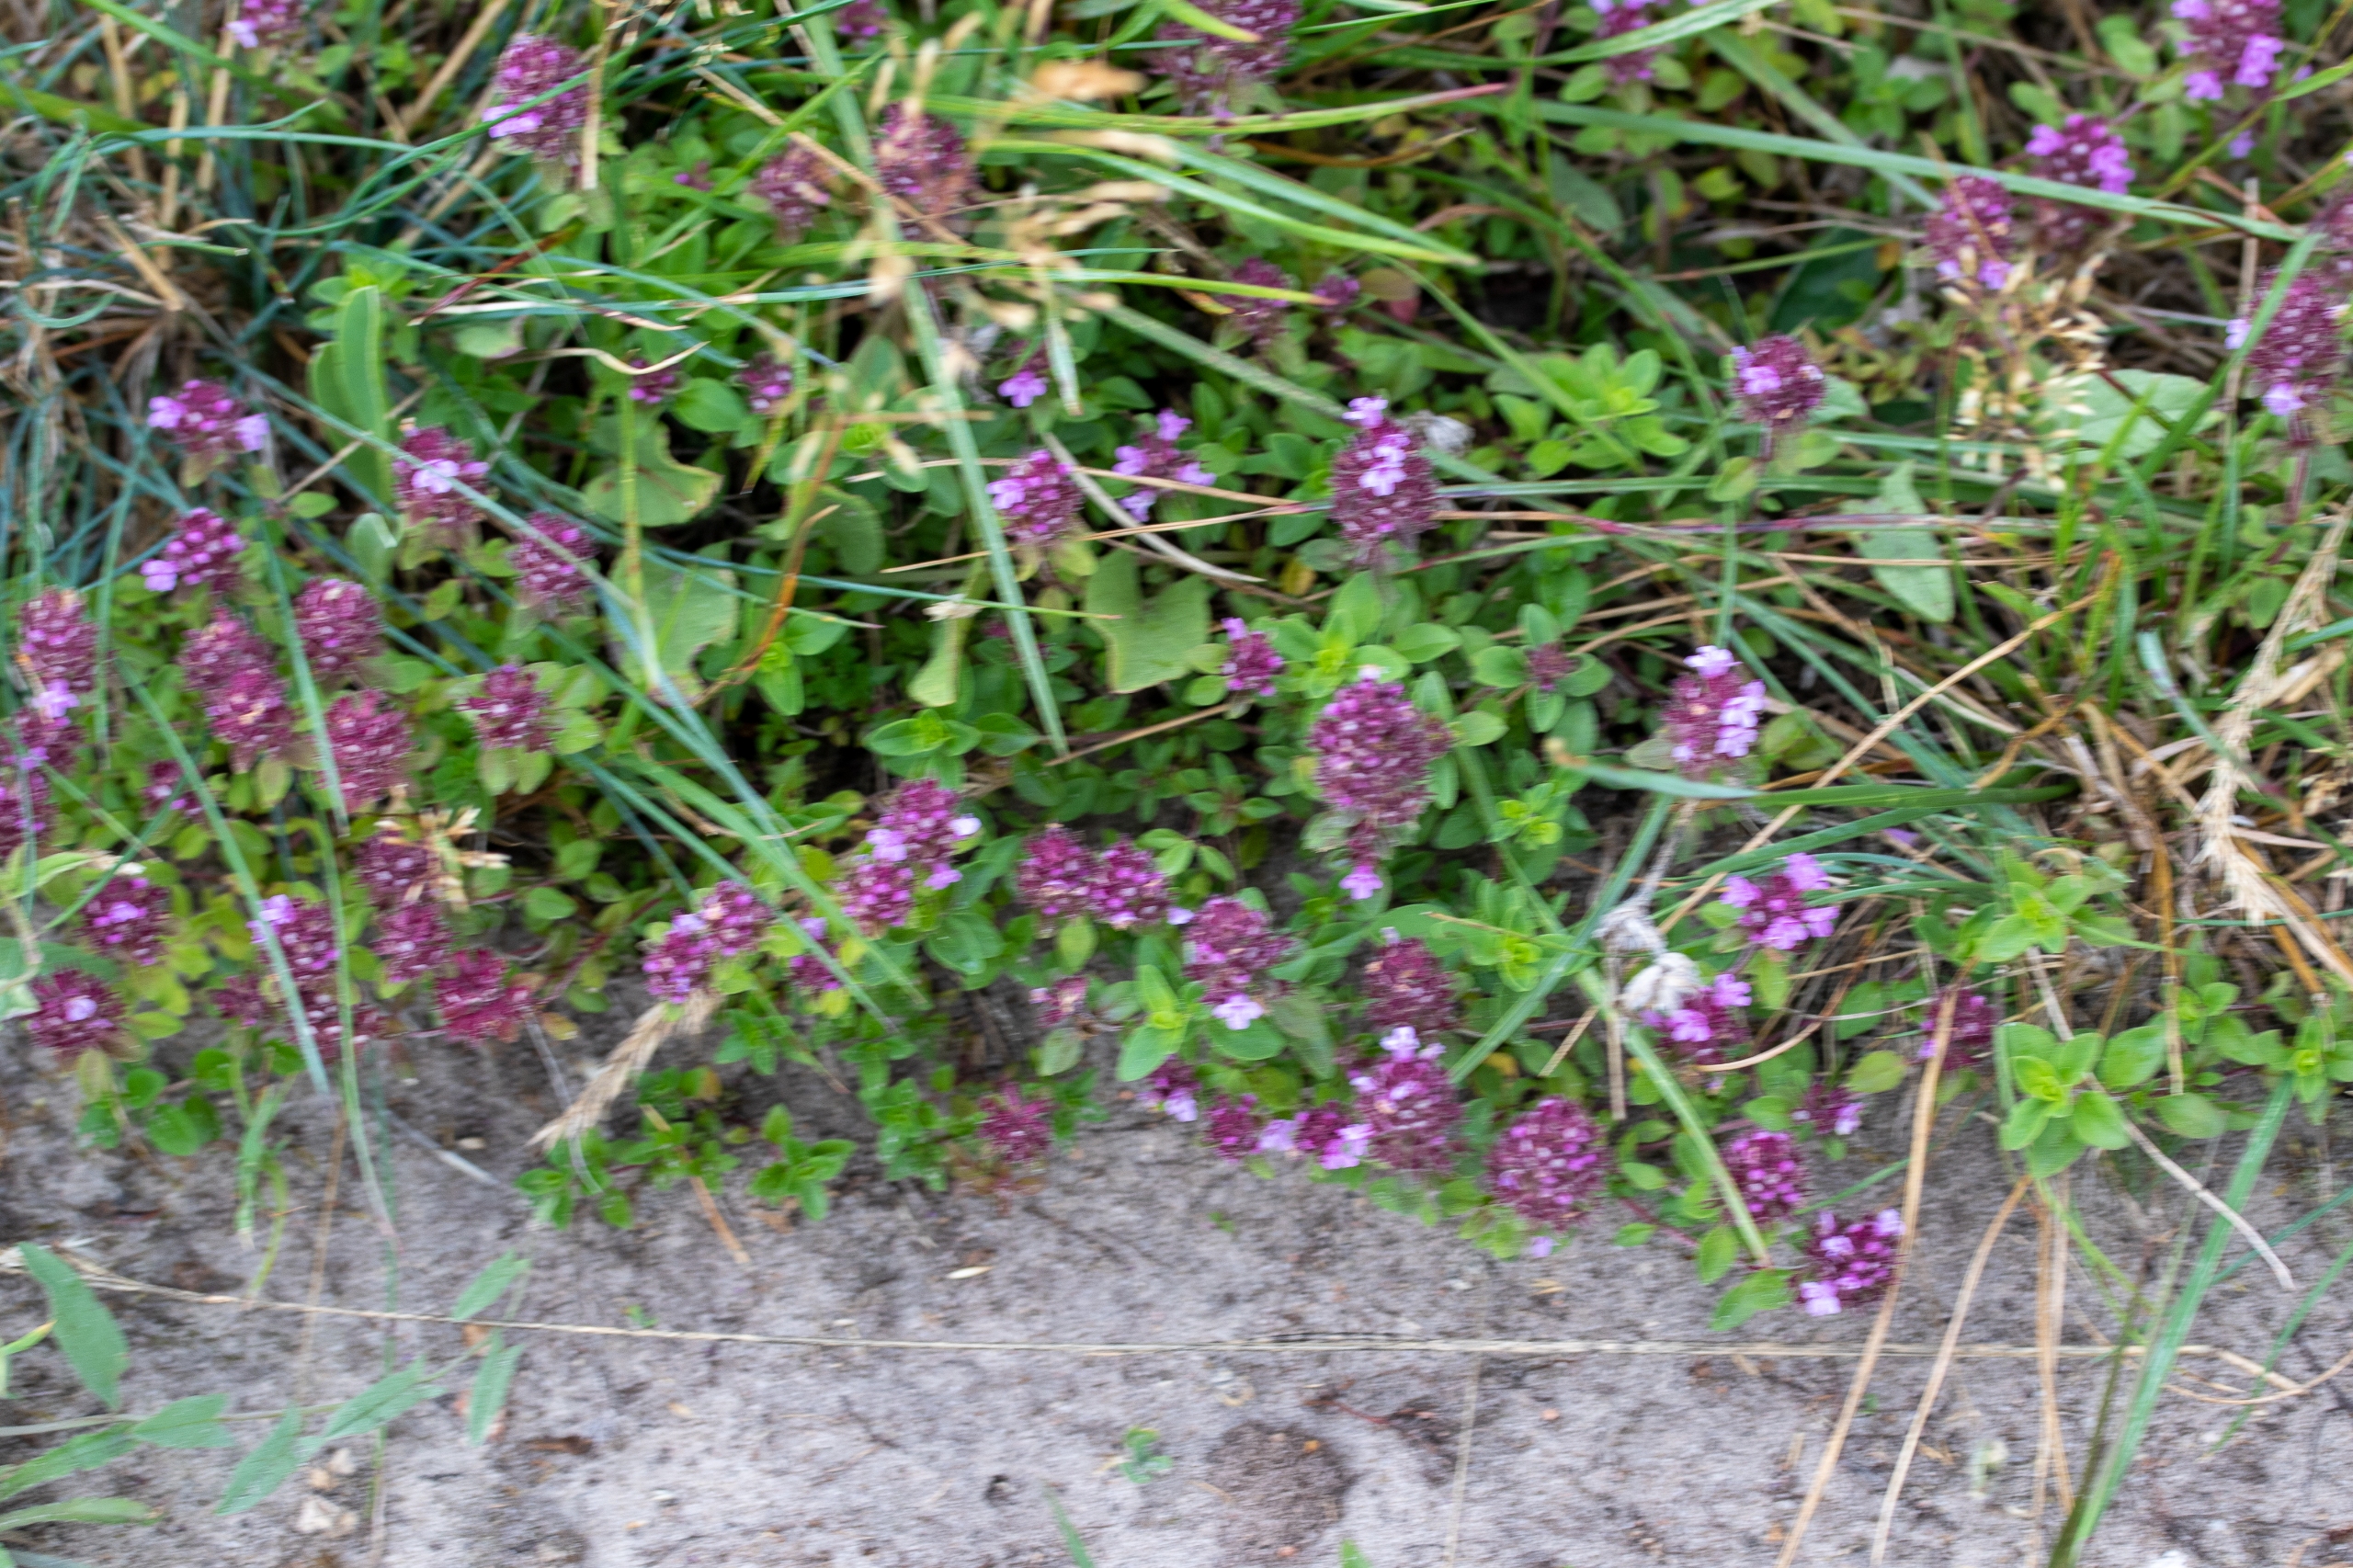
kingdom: Plantae
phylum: Tracheophyta
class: Magnoliopsida
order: Lamiales
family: Lamiaceae
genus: Thymus
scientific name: Thymus pulegioides
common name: Bredbladet timian
